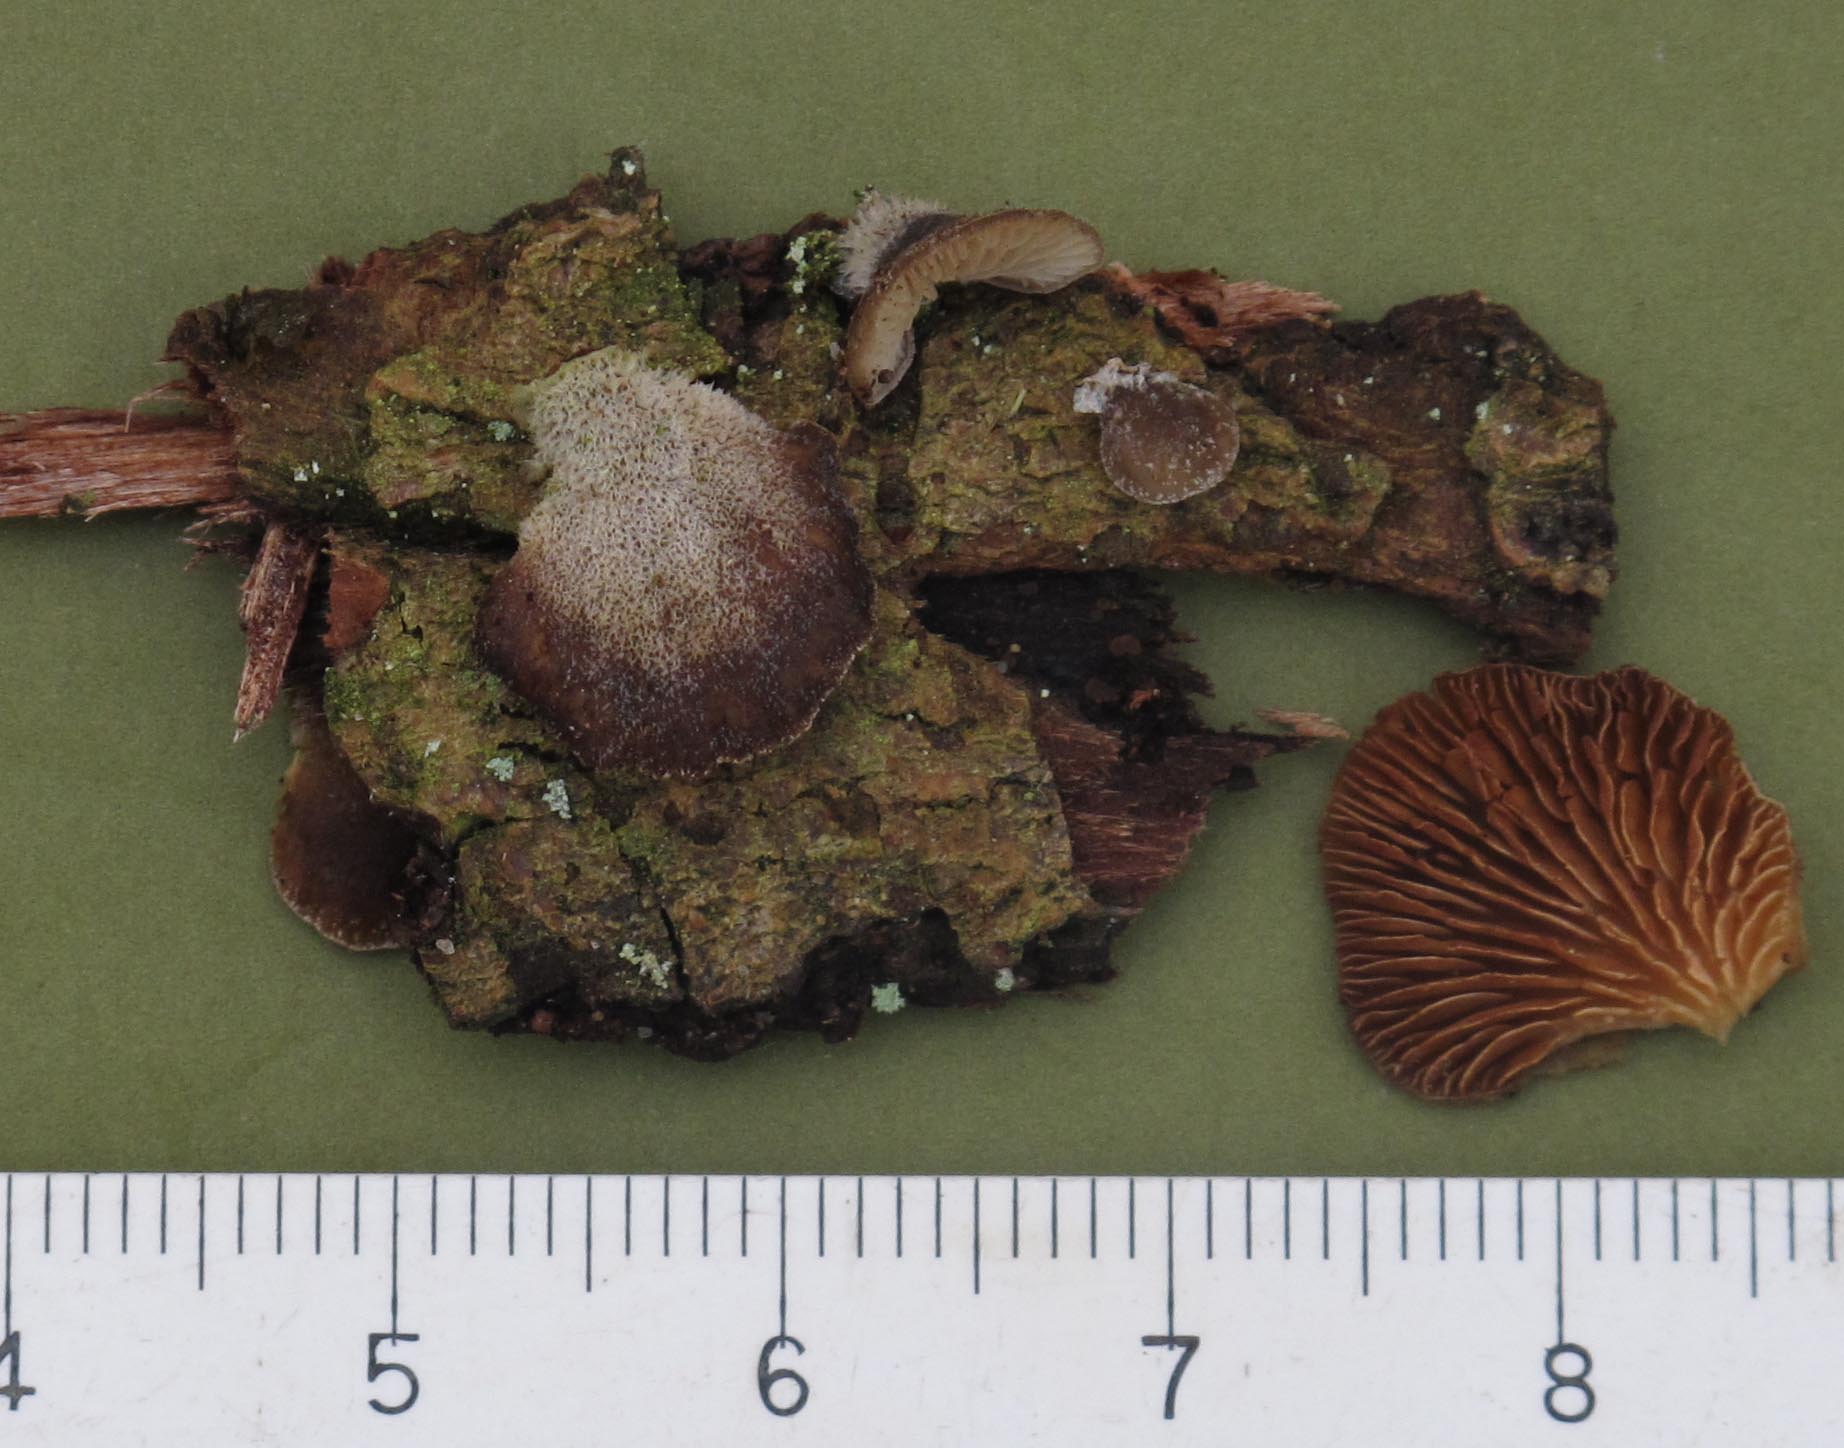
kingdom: Fungi
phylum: Basidiomycota
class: Agaricomycetes
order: Agaricales
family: Pleurotaceae
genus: Hohenbuehelia
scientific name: Hohenbuehelia fluxilis
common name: pile-filthat
